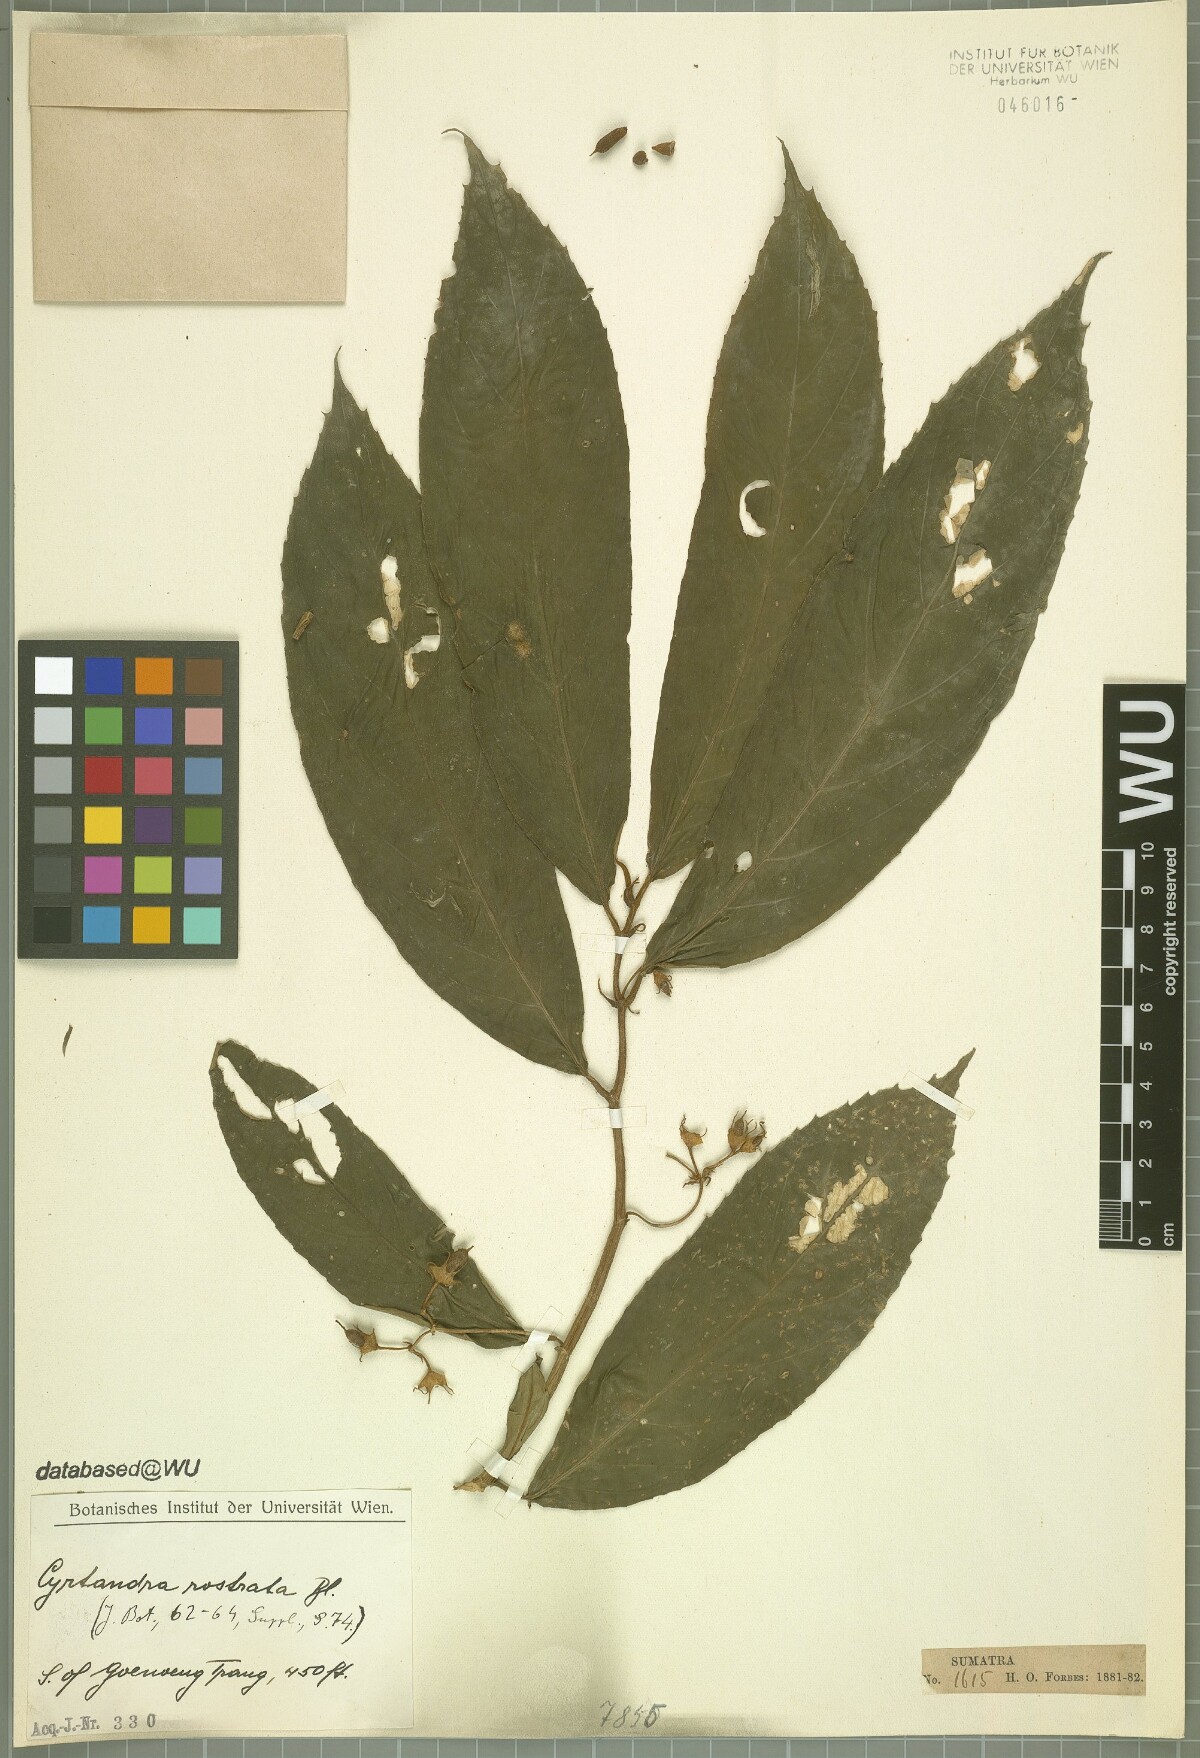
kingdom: Plantae
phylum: Tracheophyta
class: Magnoliopsida
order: Lamiales
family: Gesneriaceae
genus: Cyrtandra
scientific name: Cyrtandra rostrata
